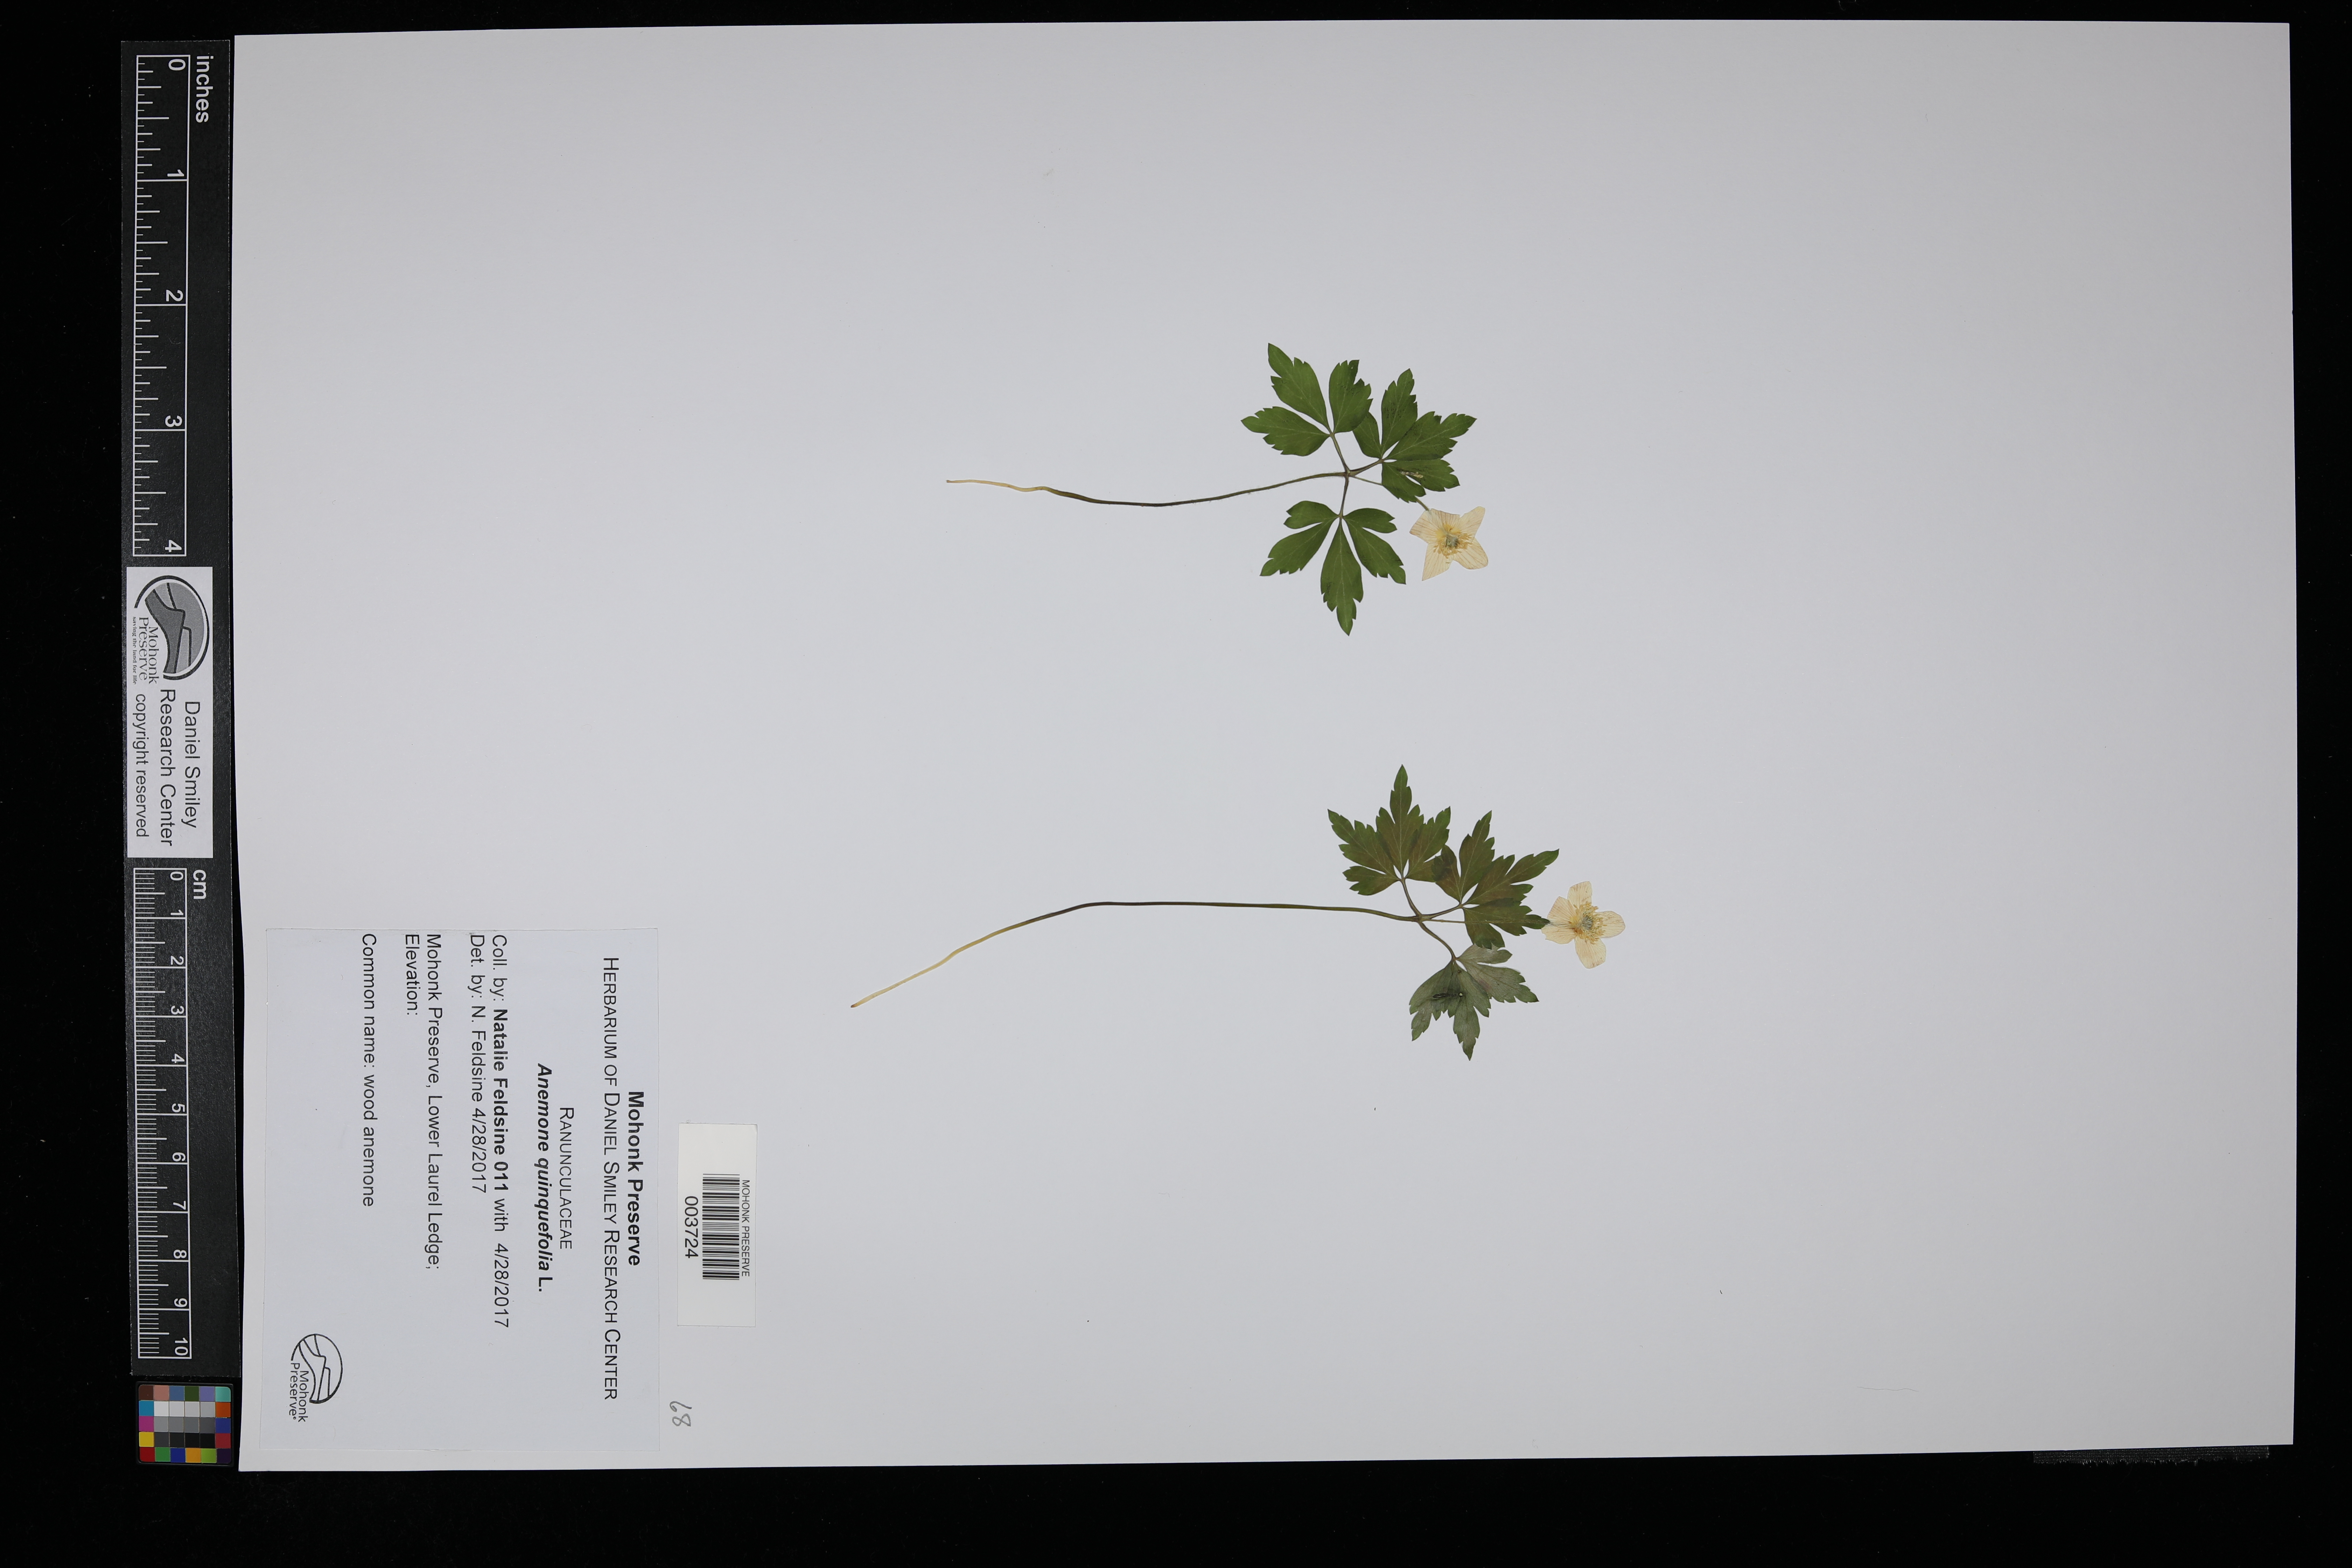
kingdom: Plantae
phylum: Tracheophyta
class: Magnoliopsida
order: Ranunculales
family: Ranunculaceae
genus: Anemone
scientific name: Anemone quinquefolia
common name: Wood anemone
